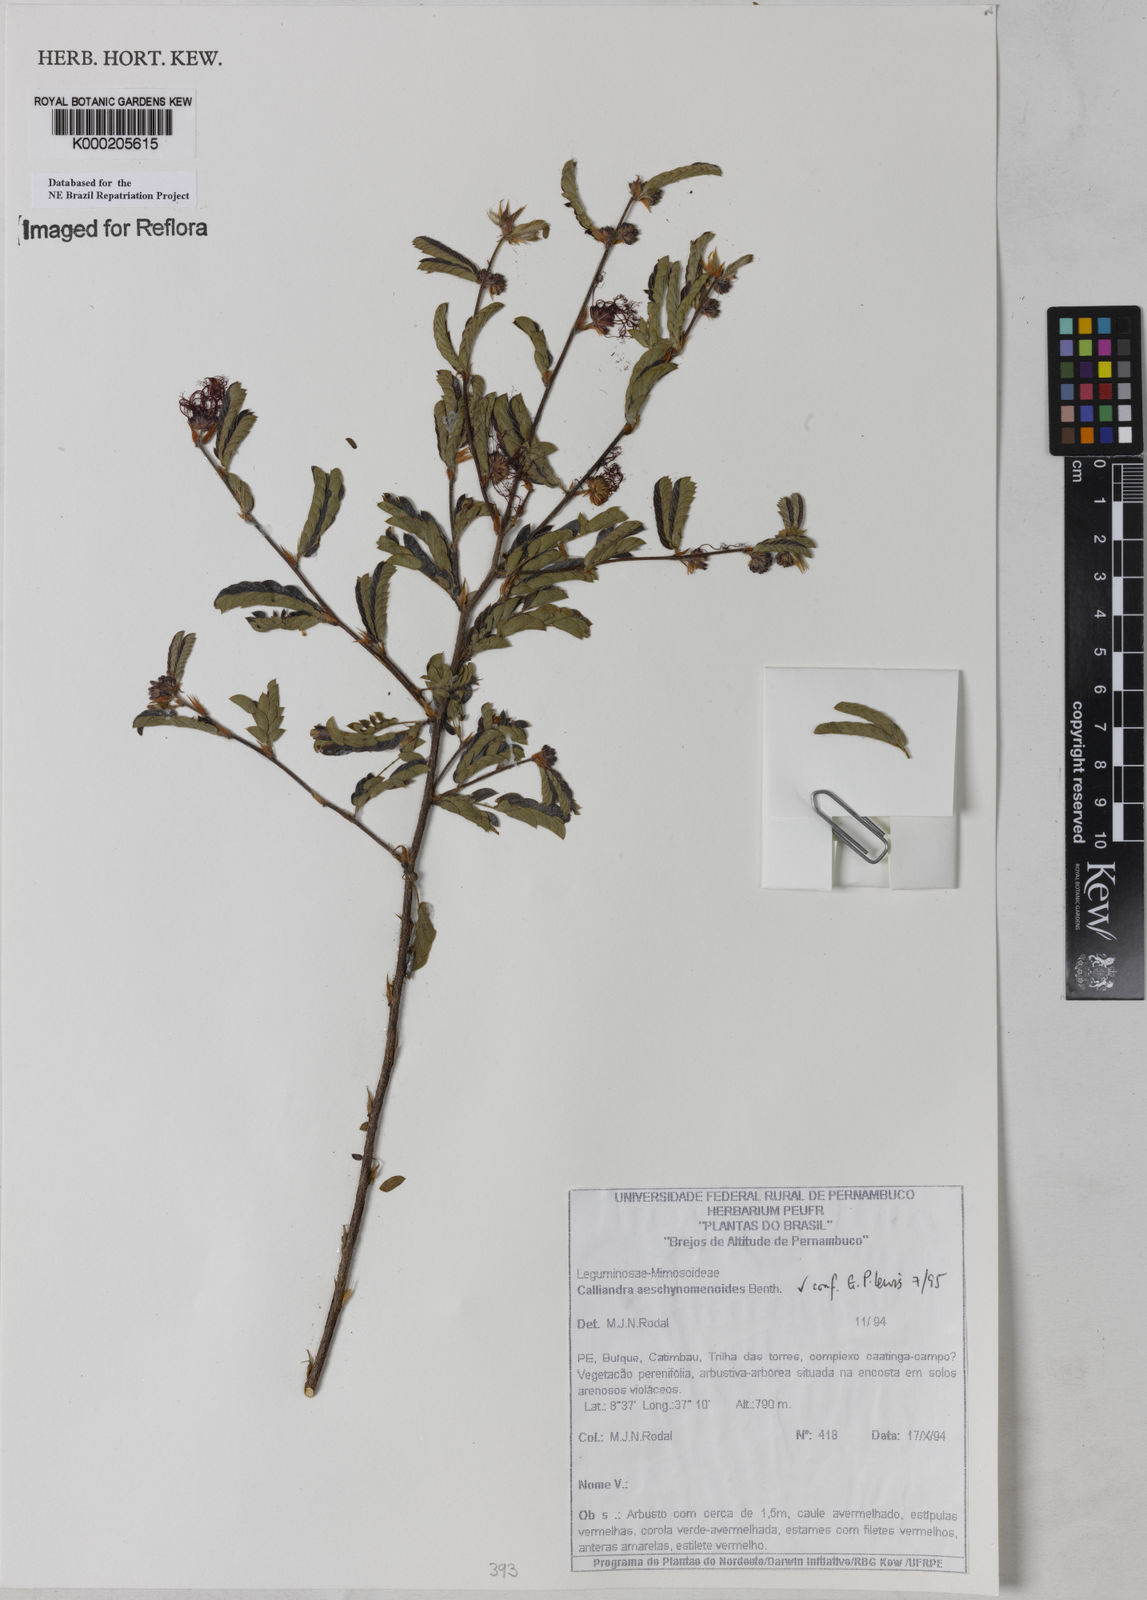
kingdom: Plantae
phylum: Tracheophyta
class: Magnoliopsida
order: Fabales
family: Fabaceae
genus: Calliandra
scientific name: Calliandra aeschynomenoides
